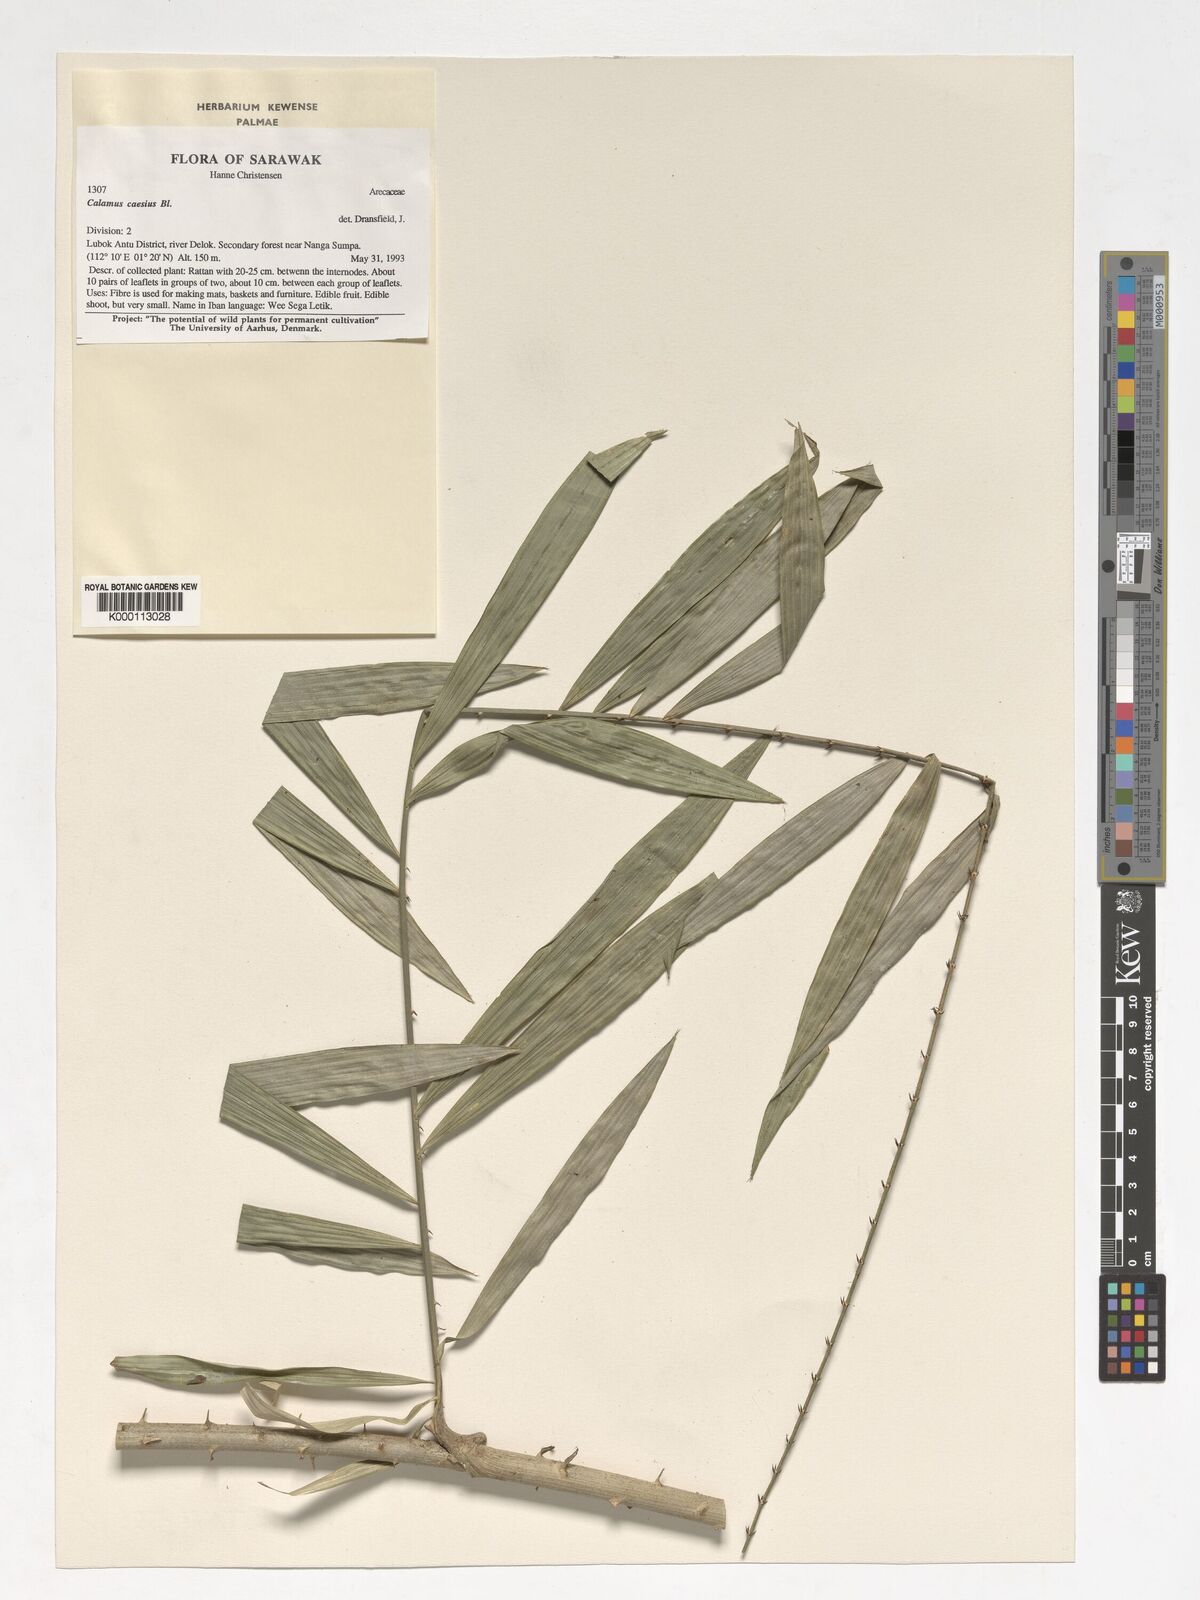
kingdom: Plantae
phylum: Tracheophyta
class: Liliopsida
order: Arecales
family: Arecaceae
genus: Calamus
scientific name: Calamus caesius
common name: Rattan palm
